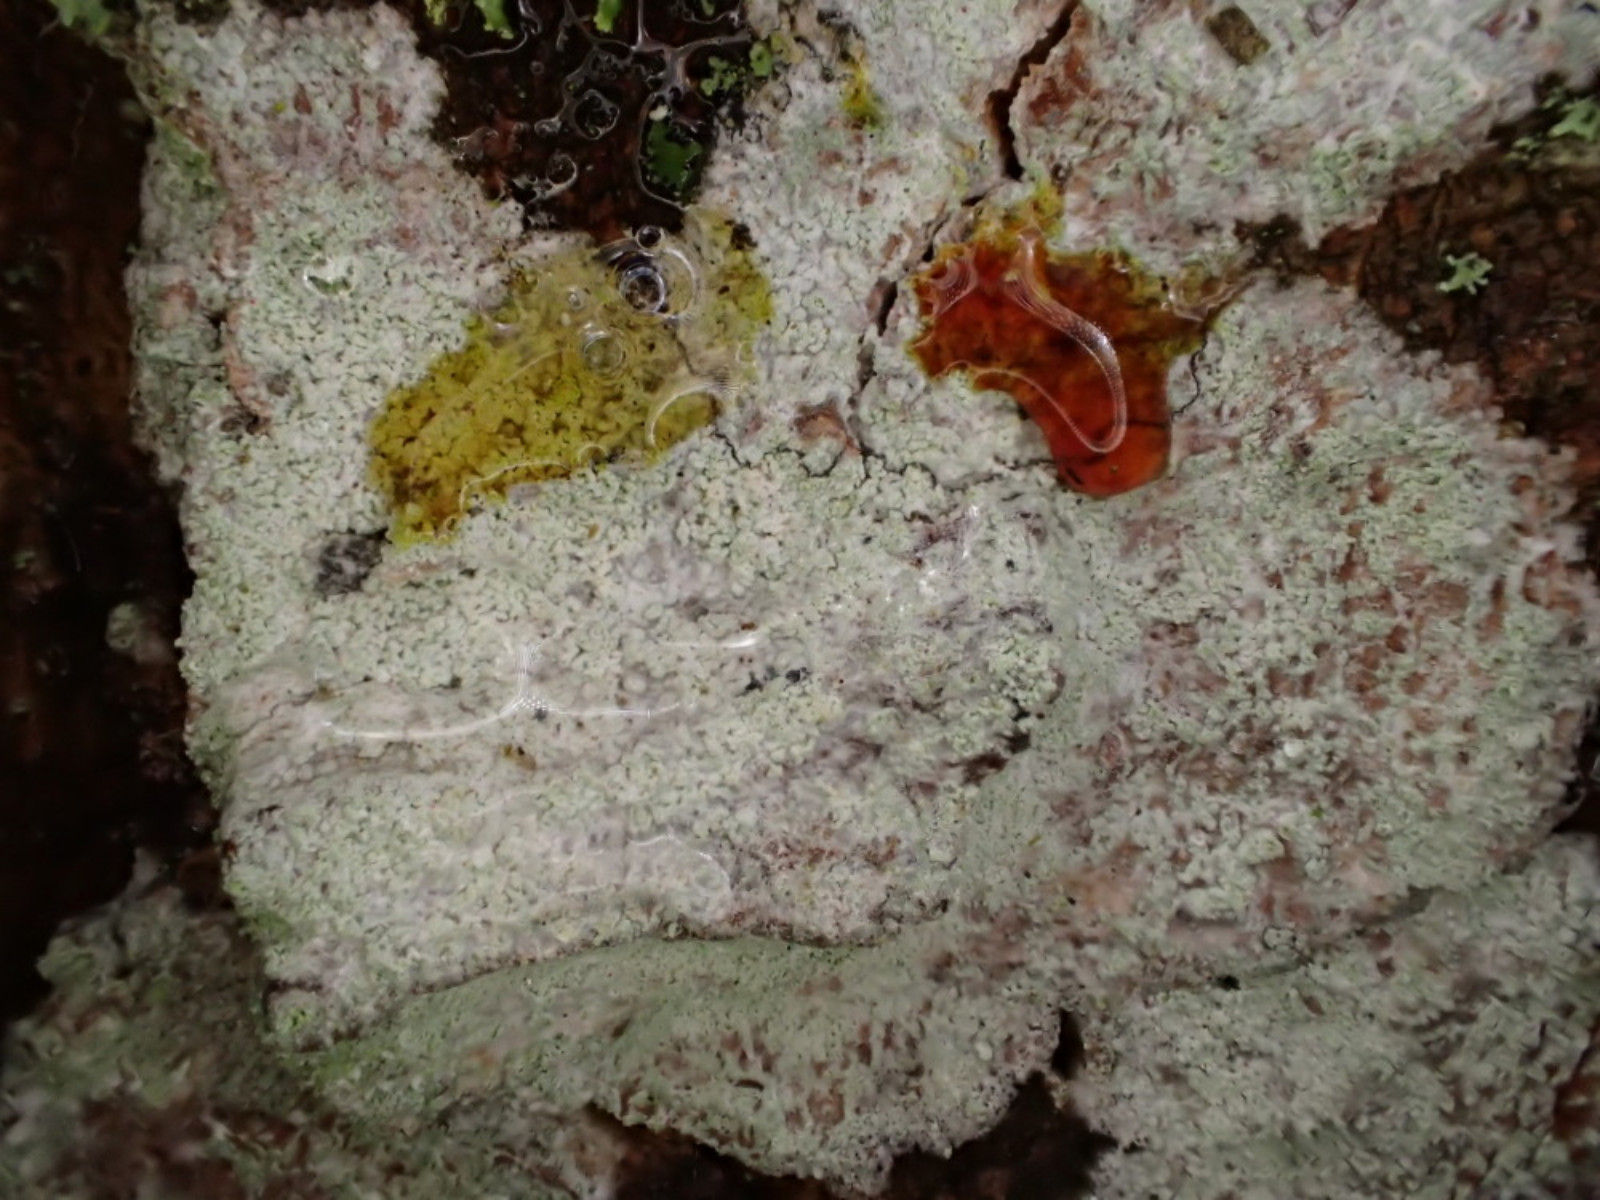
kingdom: Fungi
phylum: Ascomycota
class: Lecanoromycetes
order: Ostropales
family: Phlyctidaceae
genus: Phlyctis
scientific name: Phlyctis argena
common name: almindelig sølvlav
